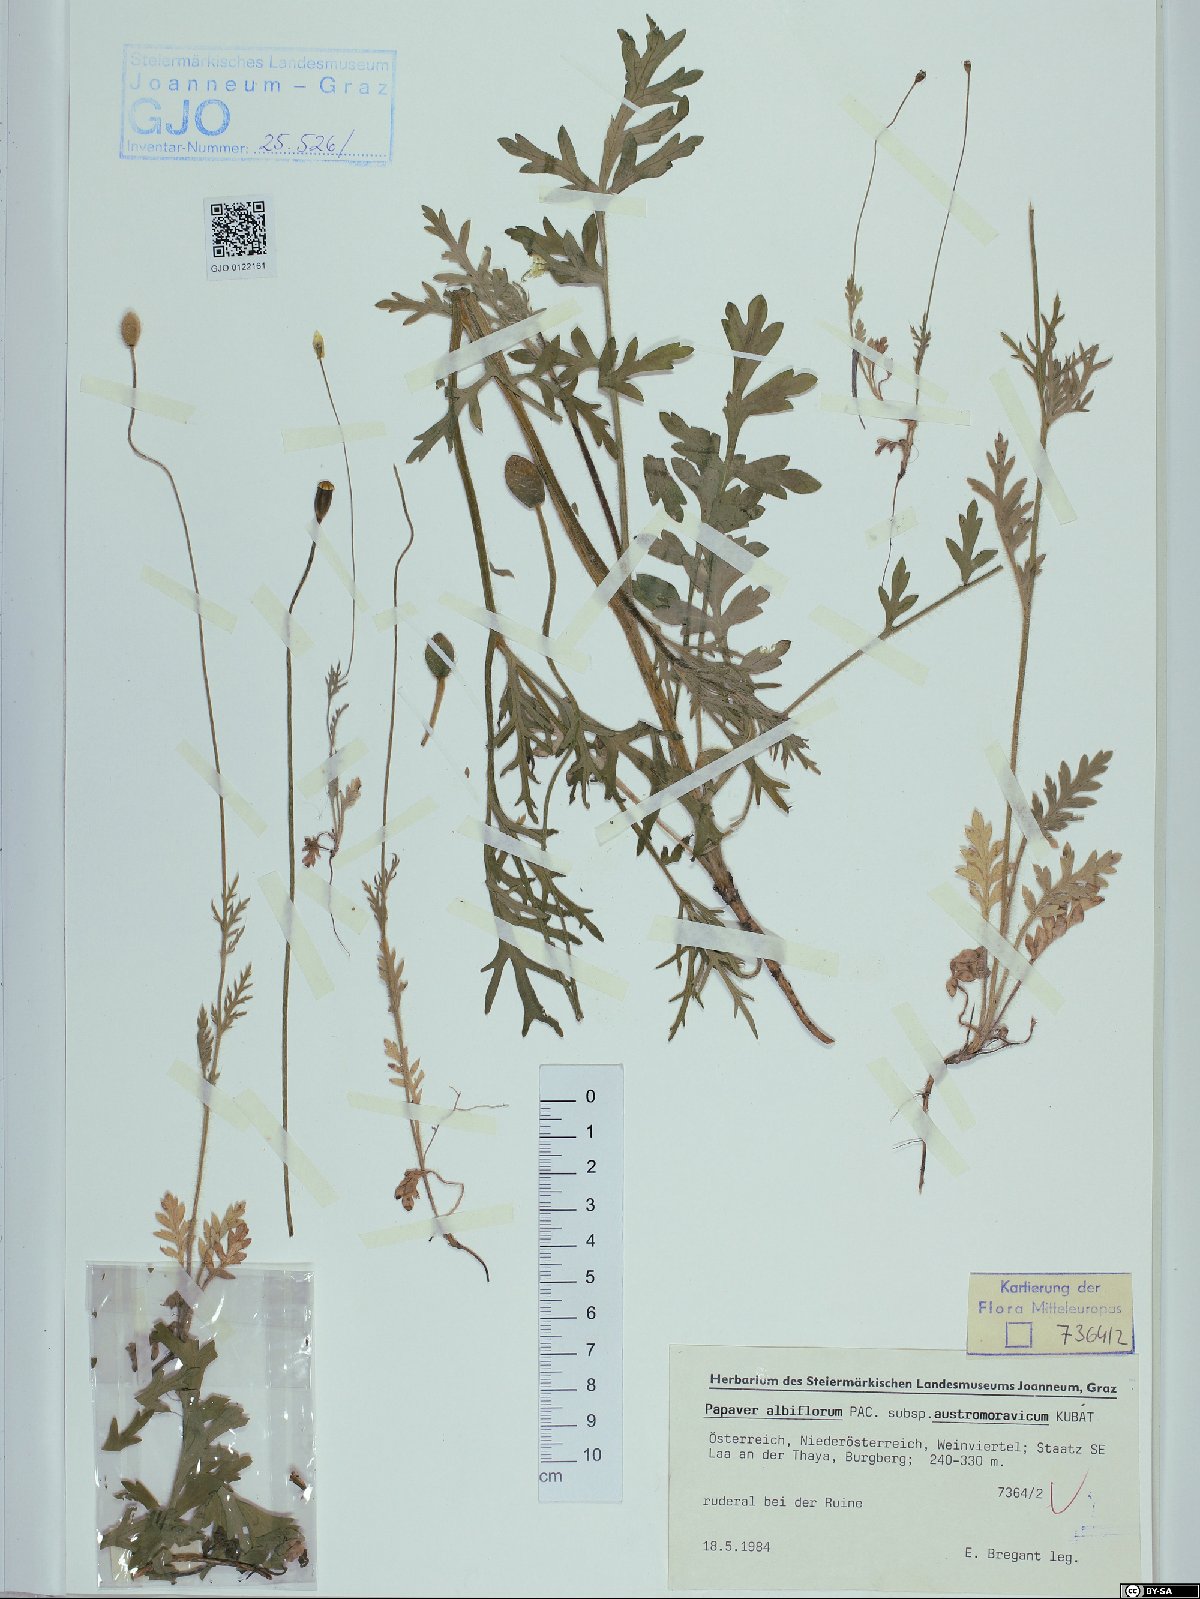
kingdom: Plantae
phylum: Tracheophyta
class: Magnoliopsida
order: Ranunculales
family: Papaveraceae
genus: Papaver
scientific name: Papaver dubium
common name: Long-headed poppy
